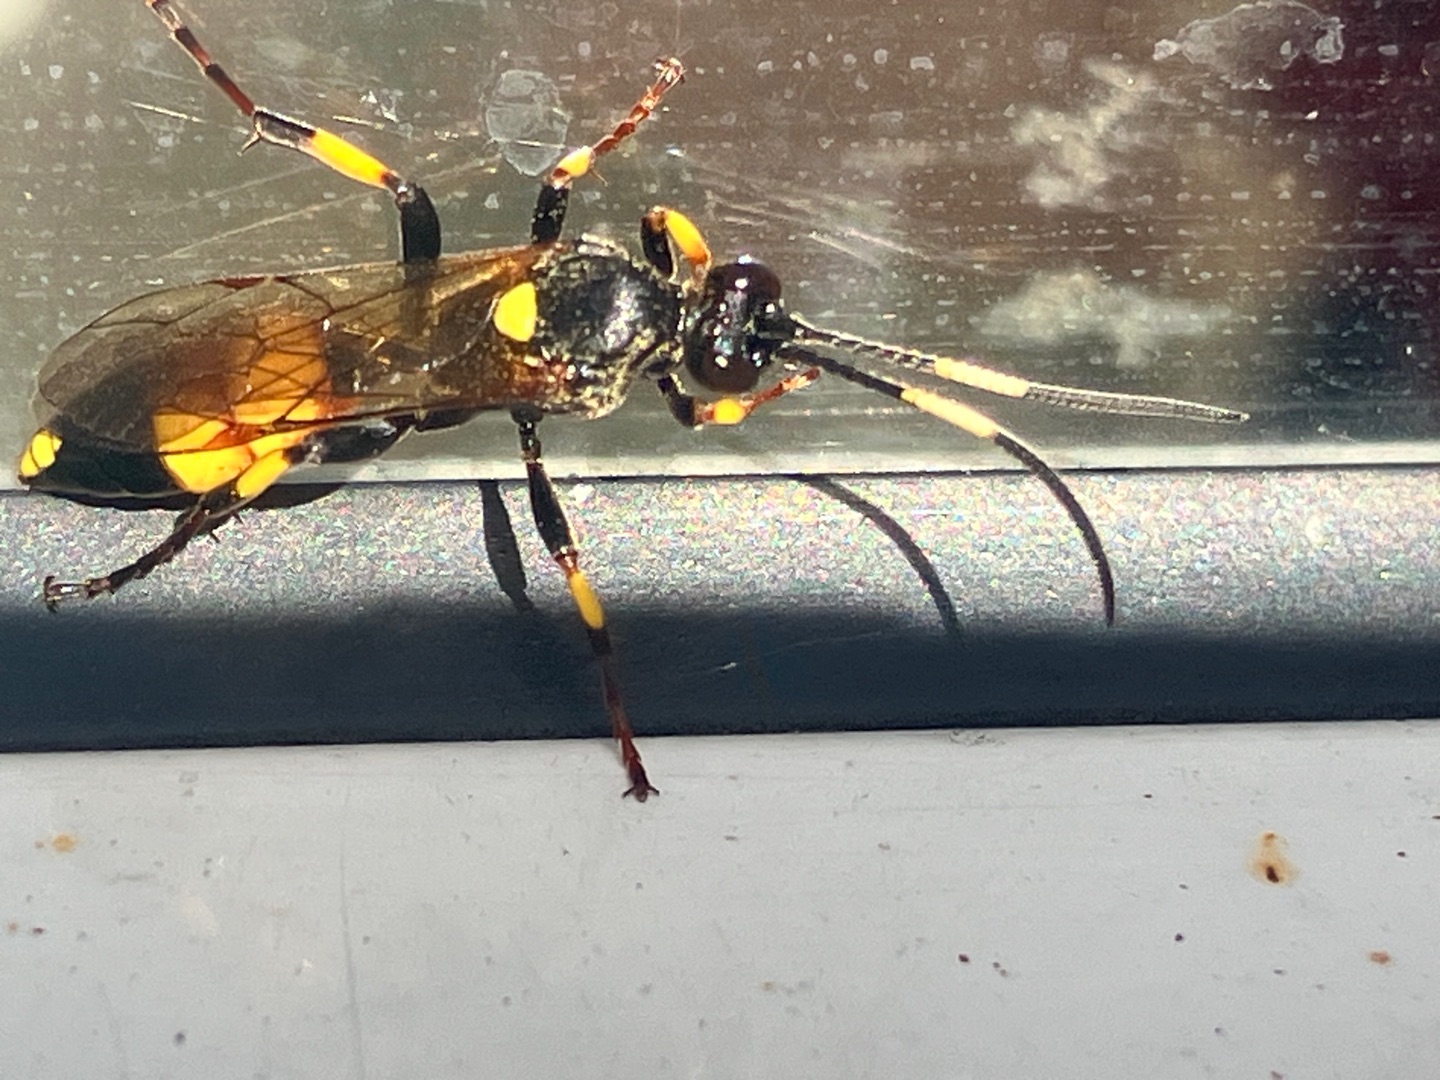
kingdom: Animalia
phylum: Arthropoda
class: Insecta
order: Hymenoptera
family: Ichneumonidae
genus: Ichneumon
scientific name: Ichneumon stramentor
